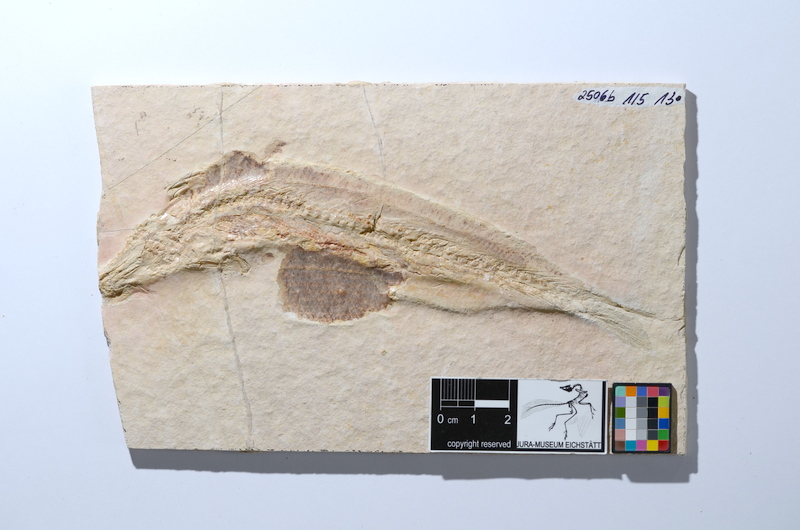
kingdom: Animalia
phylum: Chordata
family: Ascalaboidae
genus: Tharsis
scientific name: Tharsis dubius
